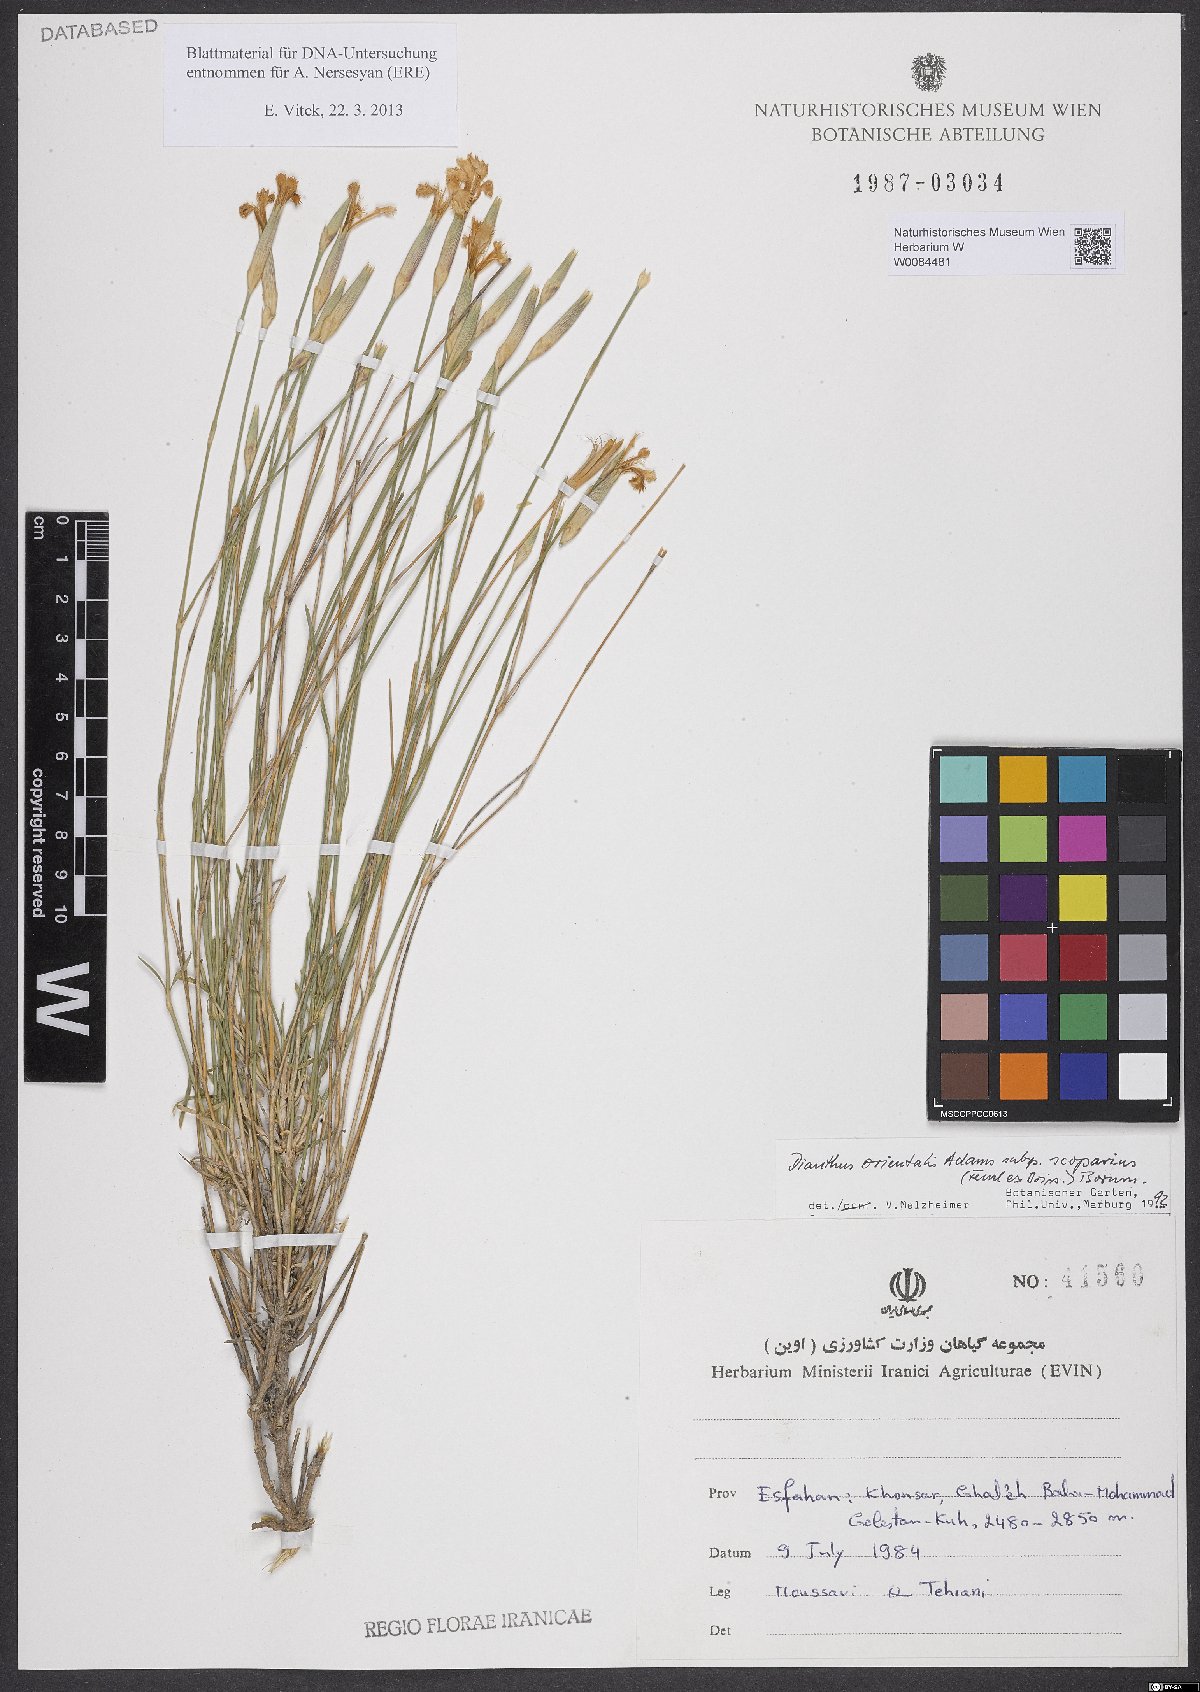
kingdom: Plantae
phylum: Tracheophyta
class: Magnoliopsida
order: Caryophyllales
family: Caryophyllaceae
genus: Dianthus
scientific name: Dianthus orientalis
